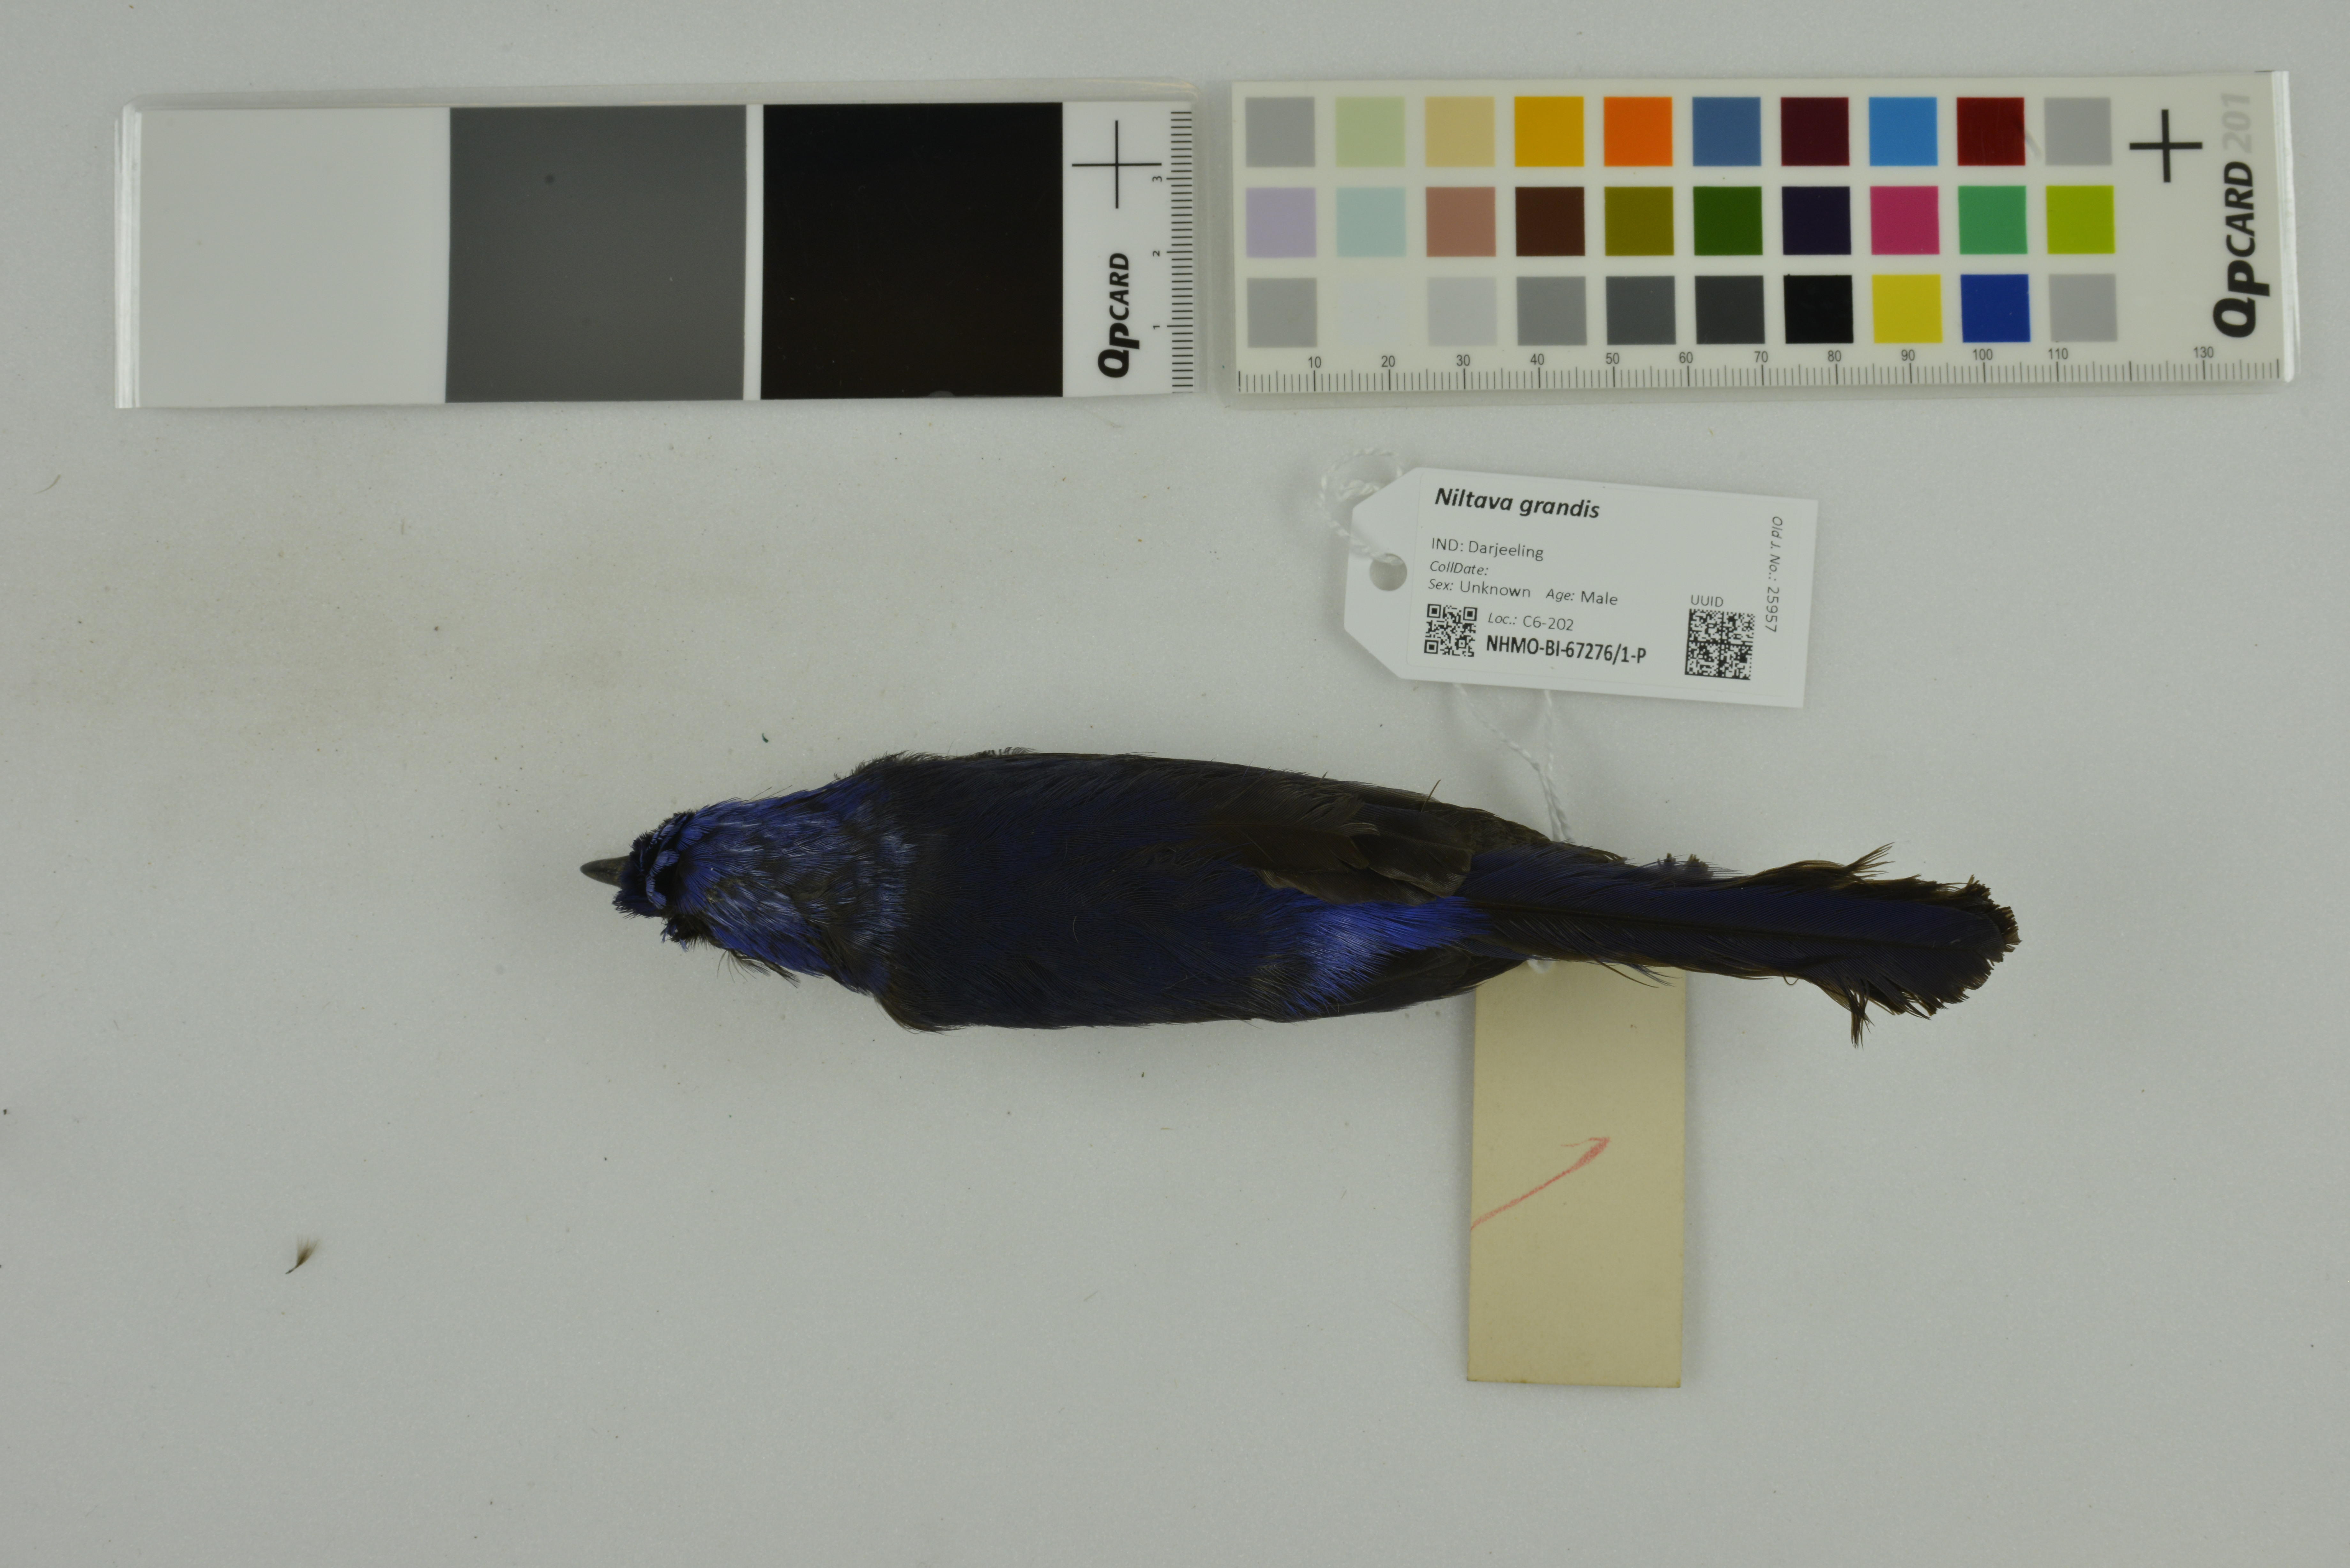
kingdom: Animalia
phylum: Chordata
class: Aves
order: Passeriformes
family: Muscicapidae
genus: Niltava
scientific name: Niltava grandis
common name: Large niltava
